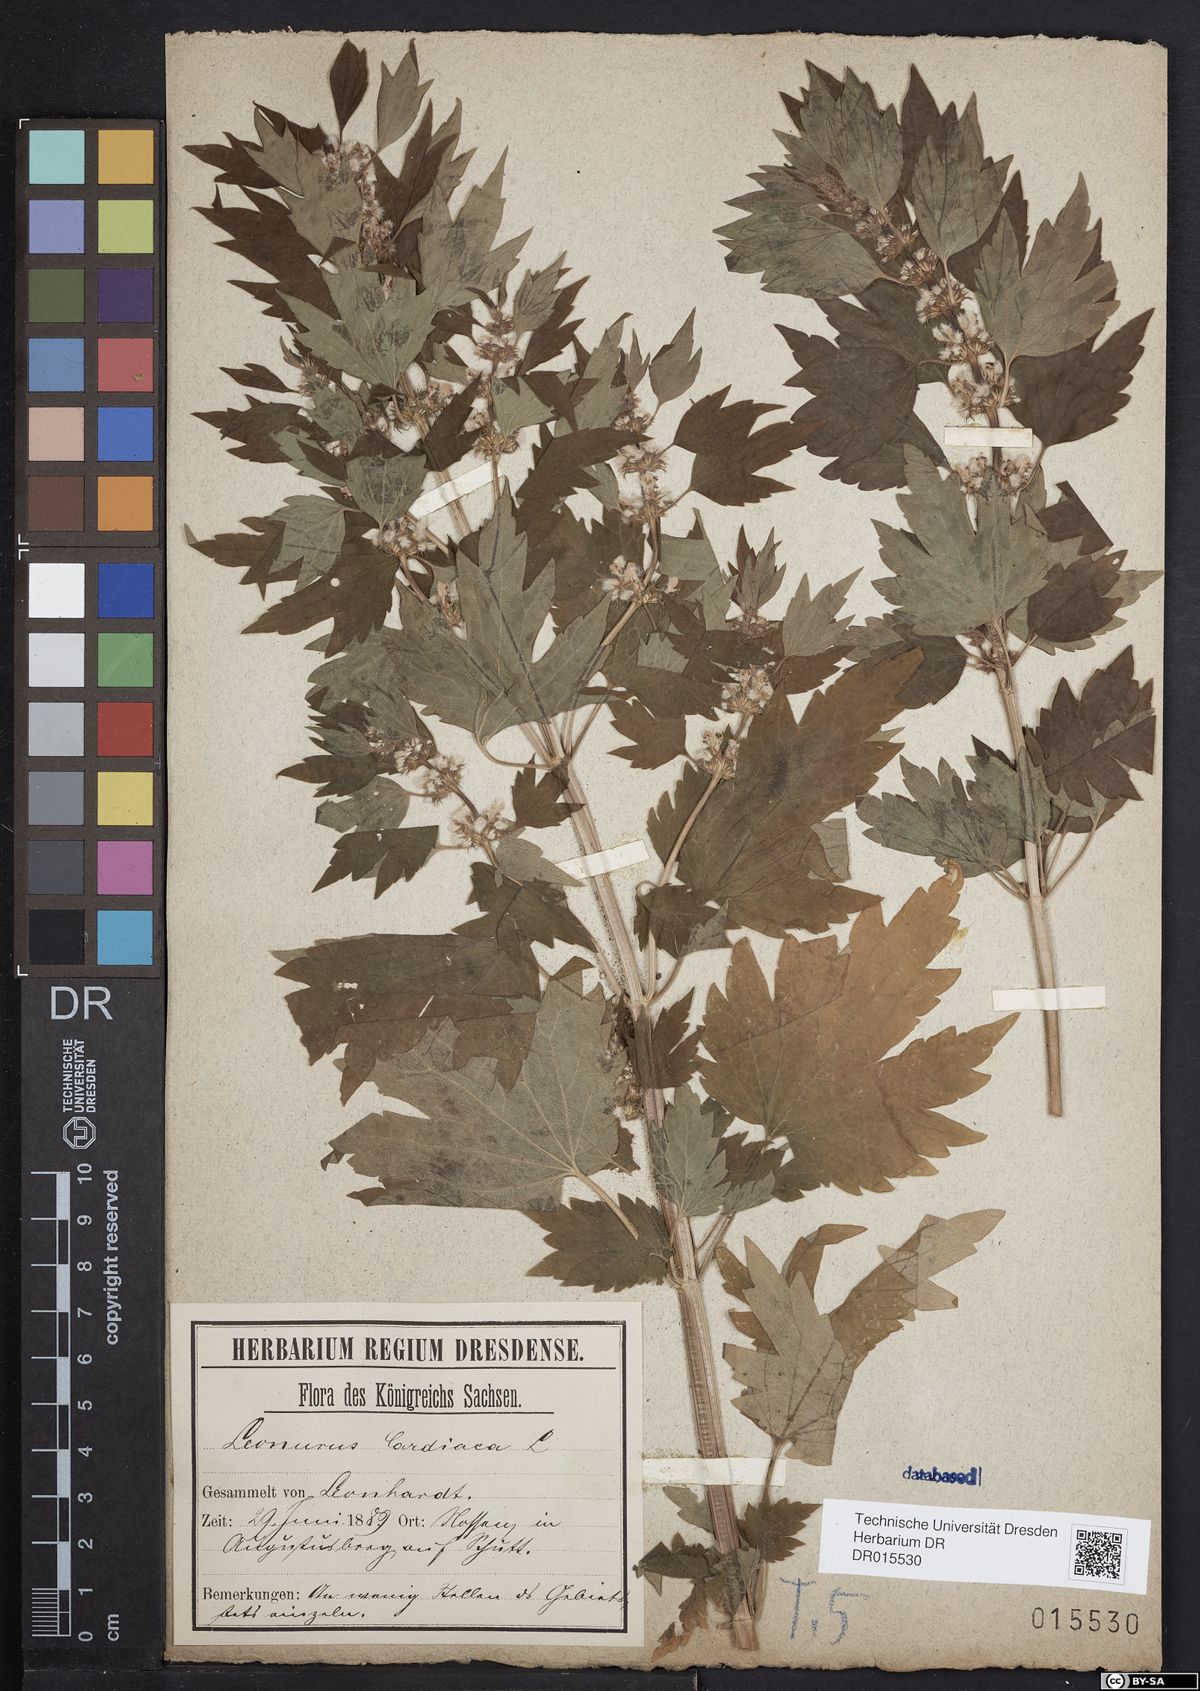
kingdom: Plantae
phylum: Tracheophyta
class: Magnoliopsida
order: Lamiales
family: Lamiaceae
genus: Leonurus
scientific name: Leonurus cardiaca
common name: Motherwort
